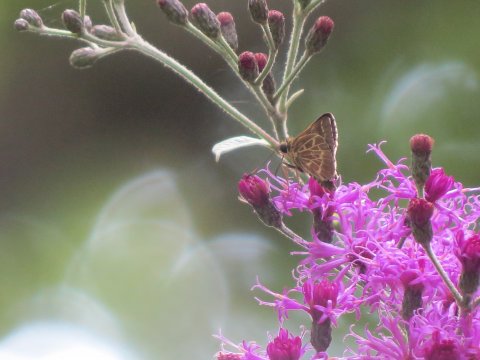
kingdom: Animalia
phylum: Arthropoda
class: Insecta
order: Lepidoptera
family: Hesperiidae
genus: Mastor
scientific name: Mastor aesculapius
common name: Lace-winged Roadside-Skipper
